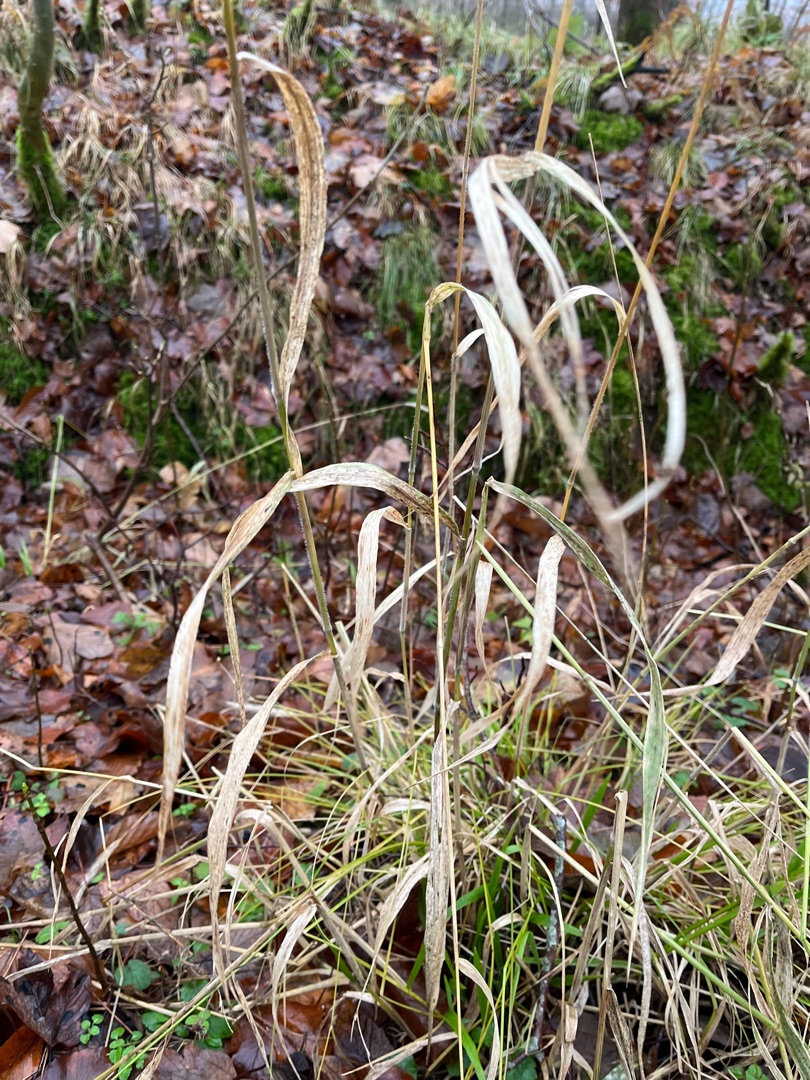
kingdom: Plantae
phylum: Tracheophyta
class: Liliopsida
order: Poales
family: Poaceae
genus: Hordelymus
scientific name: Hordelymus europaeus
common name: Skovbyg
